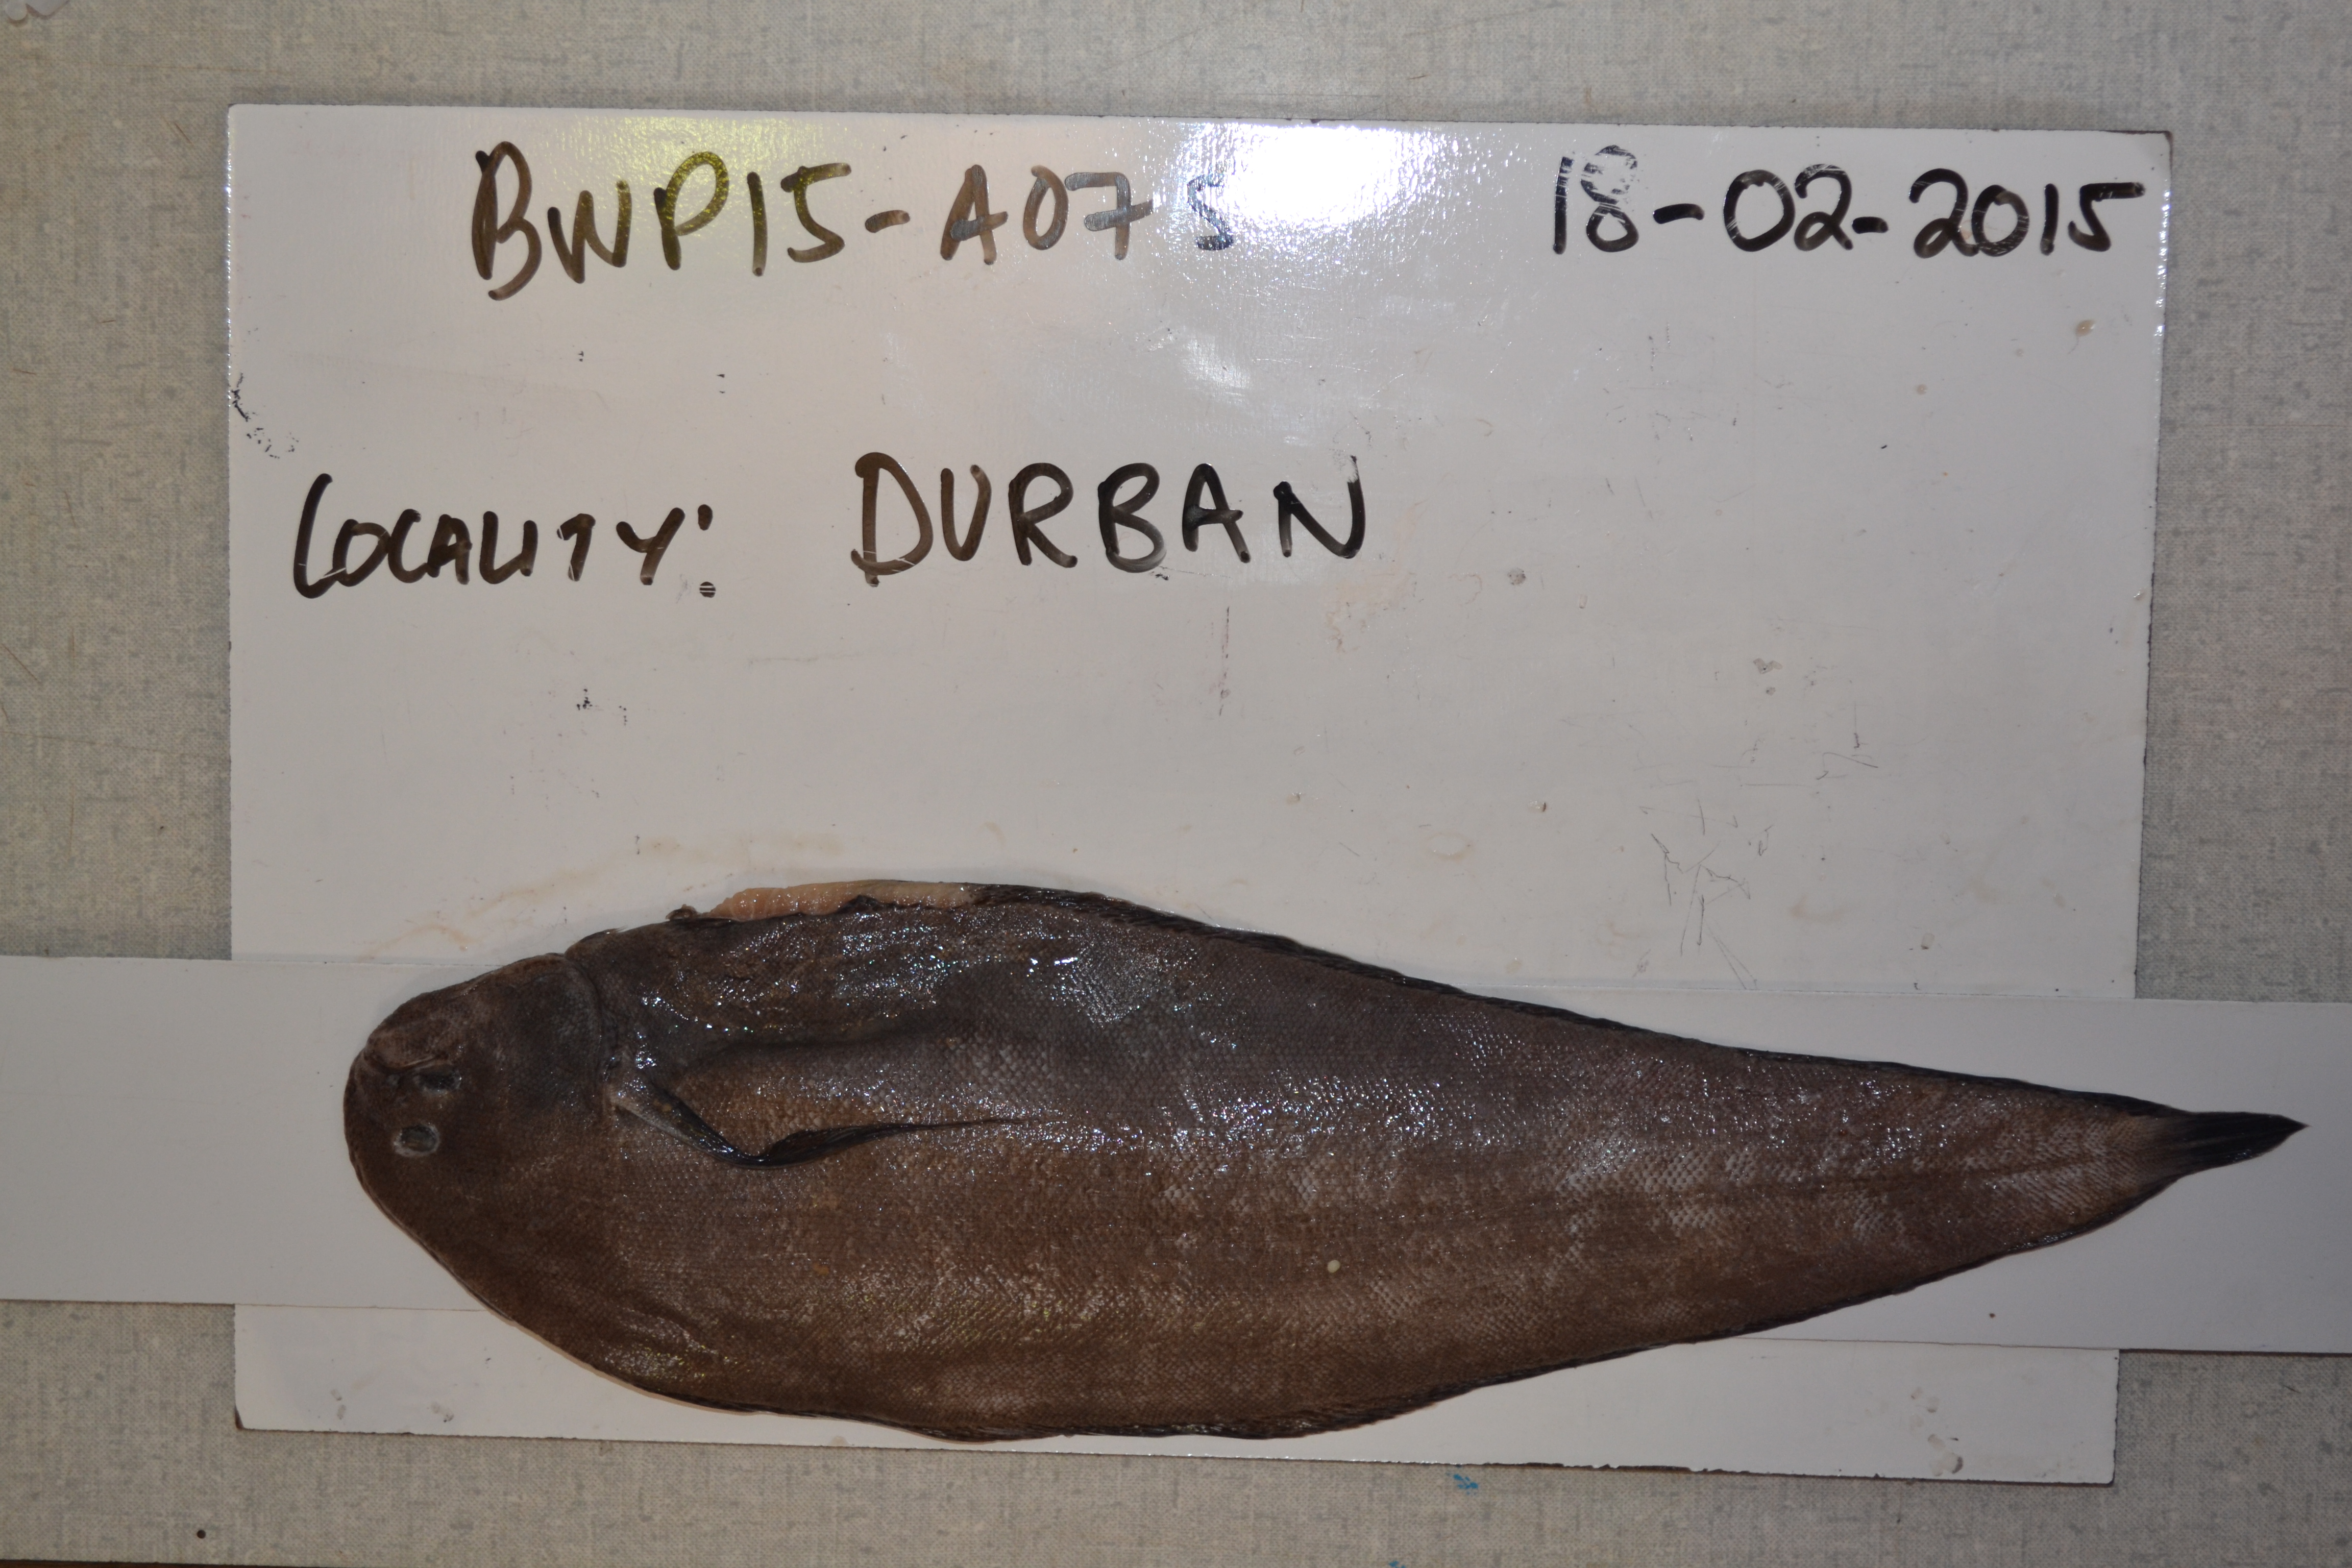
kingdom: Animalia
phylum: Chordata
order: Pleuronectiformes
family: Soleidae
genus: Austroglossus
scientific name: Austroglossus pectoralis
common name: East coast sole
